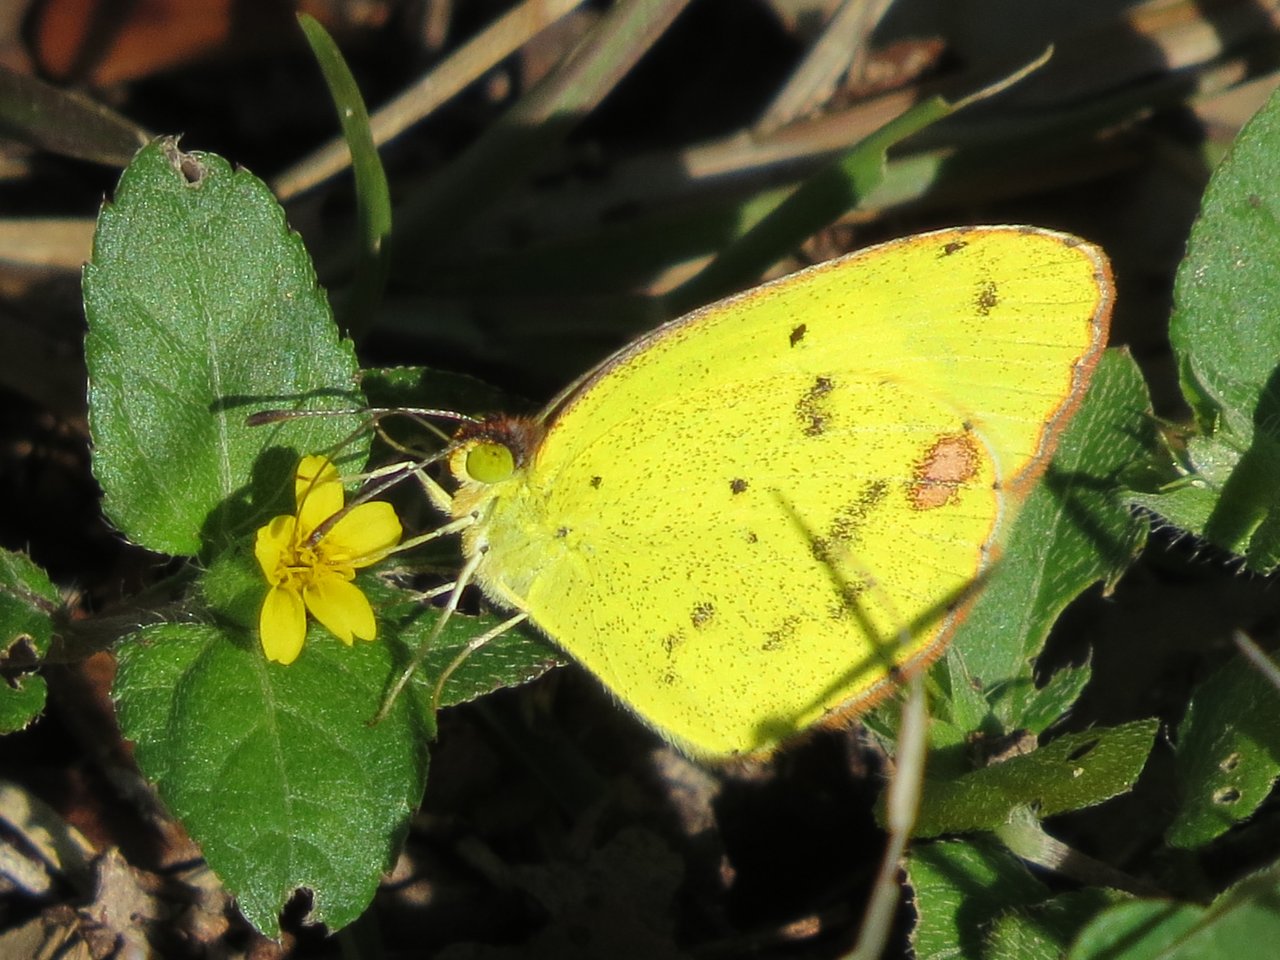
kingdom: Animalia
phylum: Arthropoda
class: Insecta
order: Lepidoptera
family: Pieridae
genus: Pyrisitia
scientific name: Pyrisitia lisa
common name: Little Yellow
